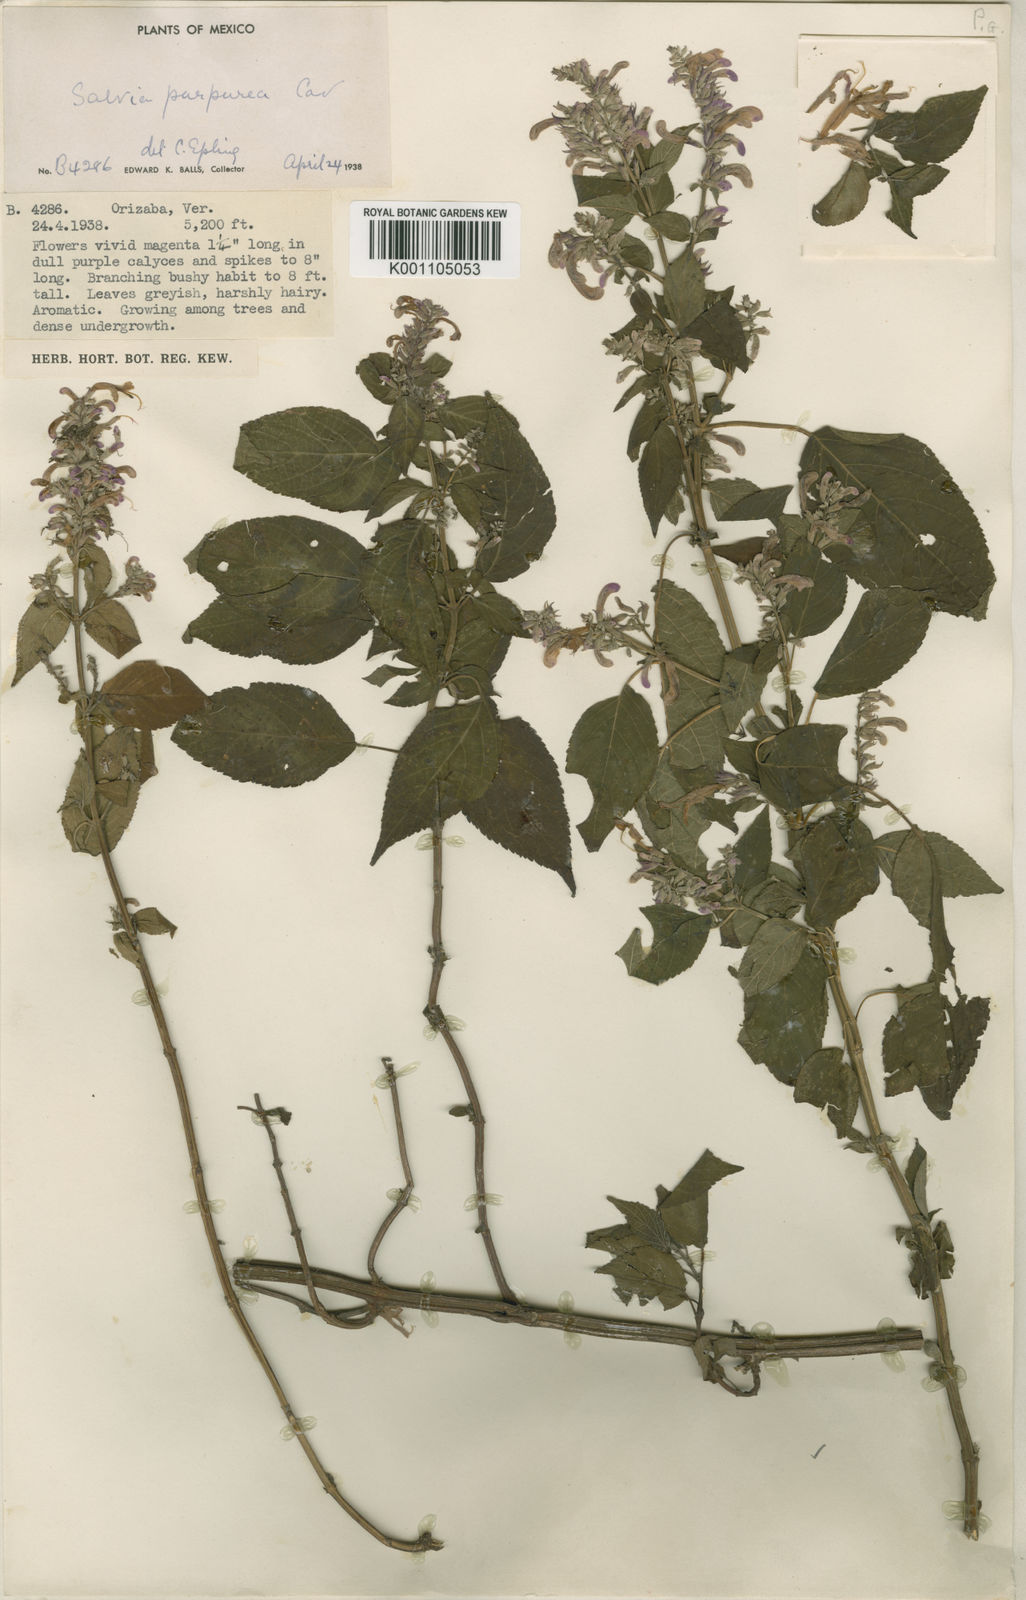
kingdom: Plantae
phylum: Tracheophyta
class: Magnoliopsida
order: Lamiales
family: Lamiaceae
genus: Salvia
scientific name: Salvia
